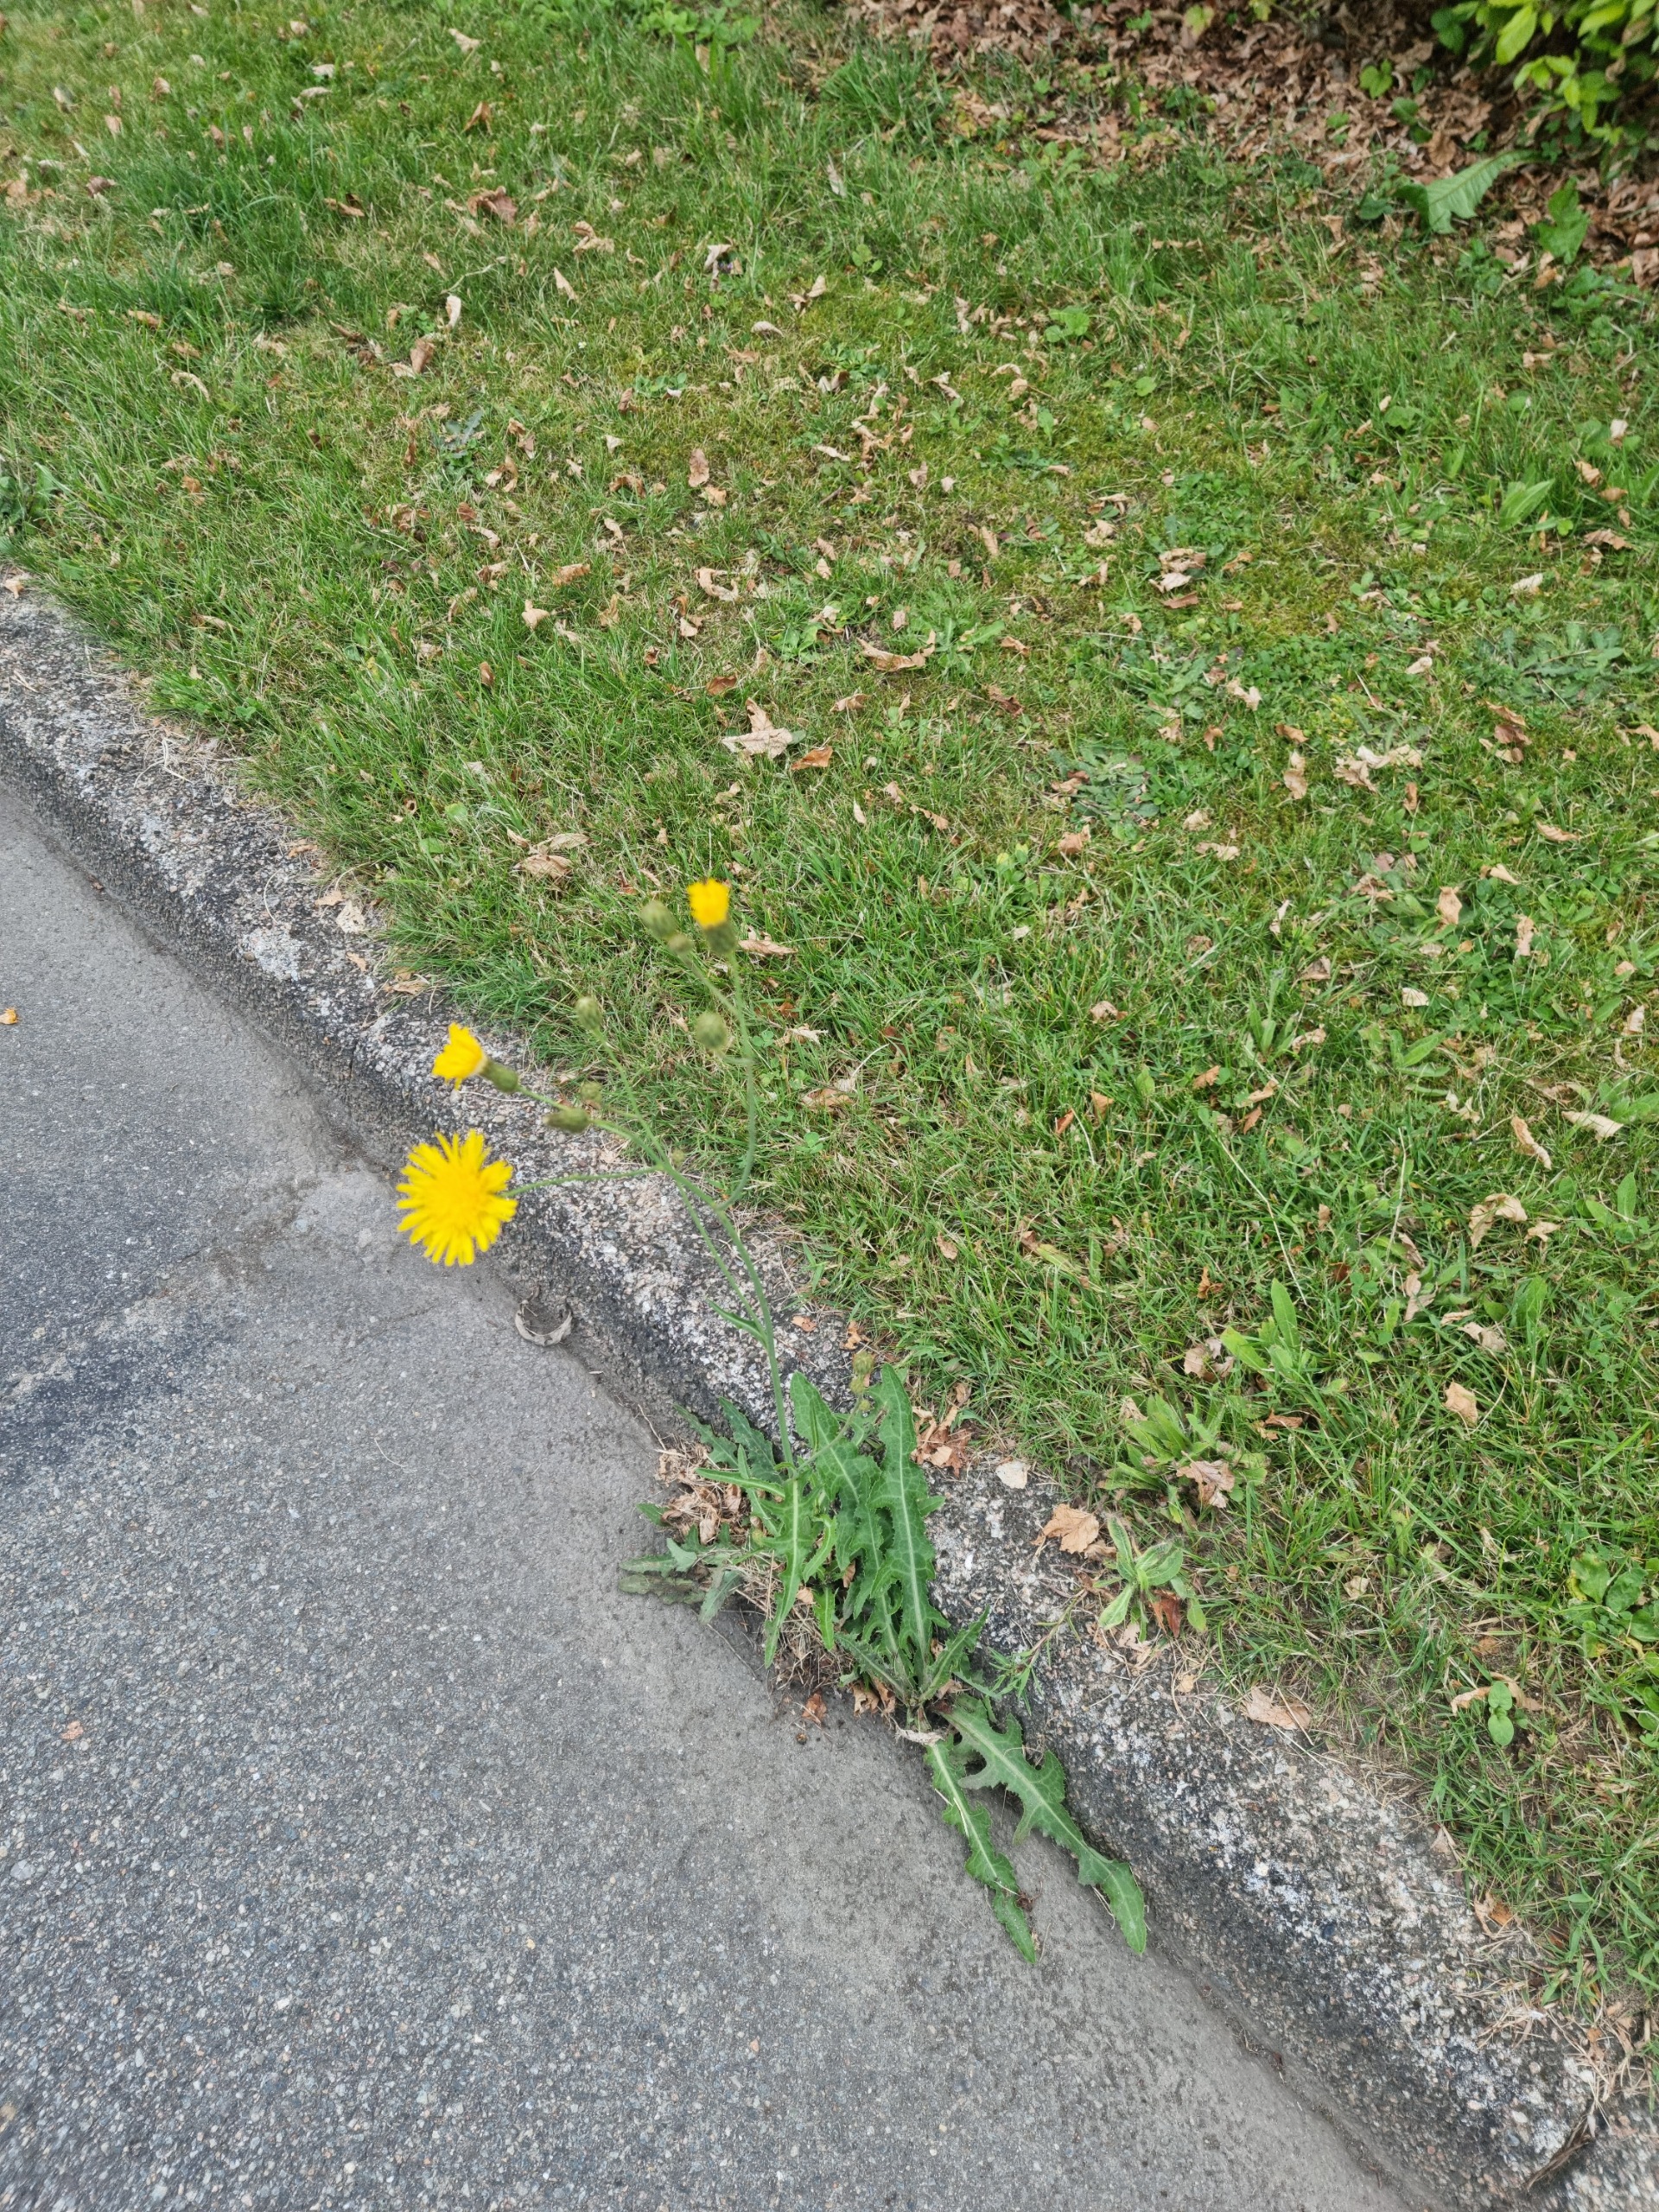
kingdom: Plantae
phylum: Tracheophyta
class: Magnoliopsida
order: Asterales
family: Asteraceae
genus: Sonchus
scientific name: Sonchus arvensis
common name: Ager-svinemælk
